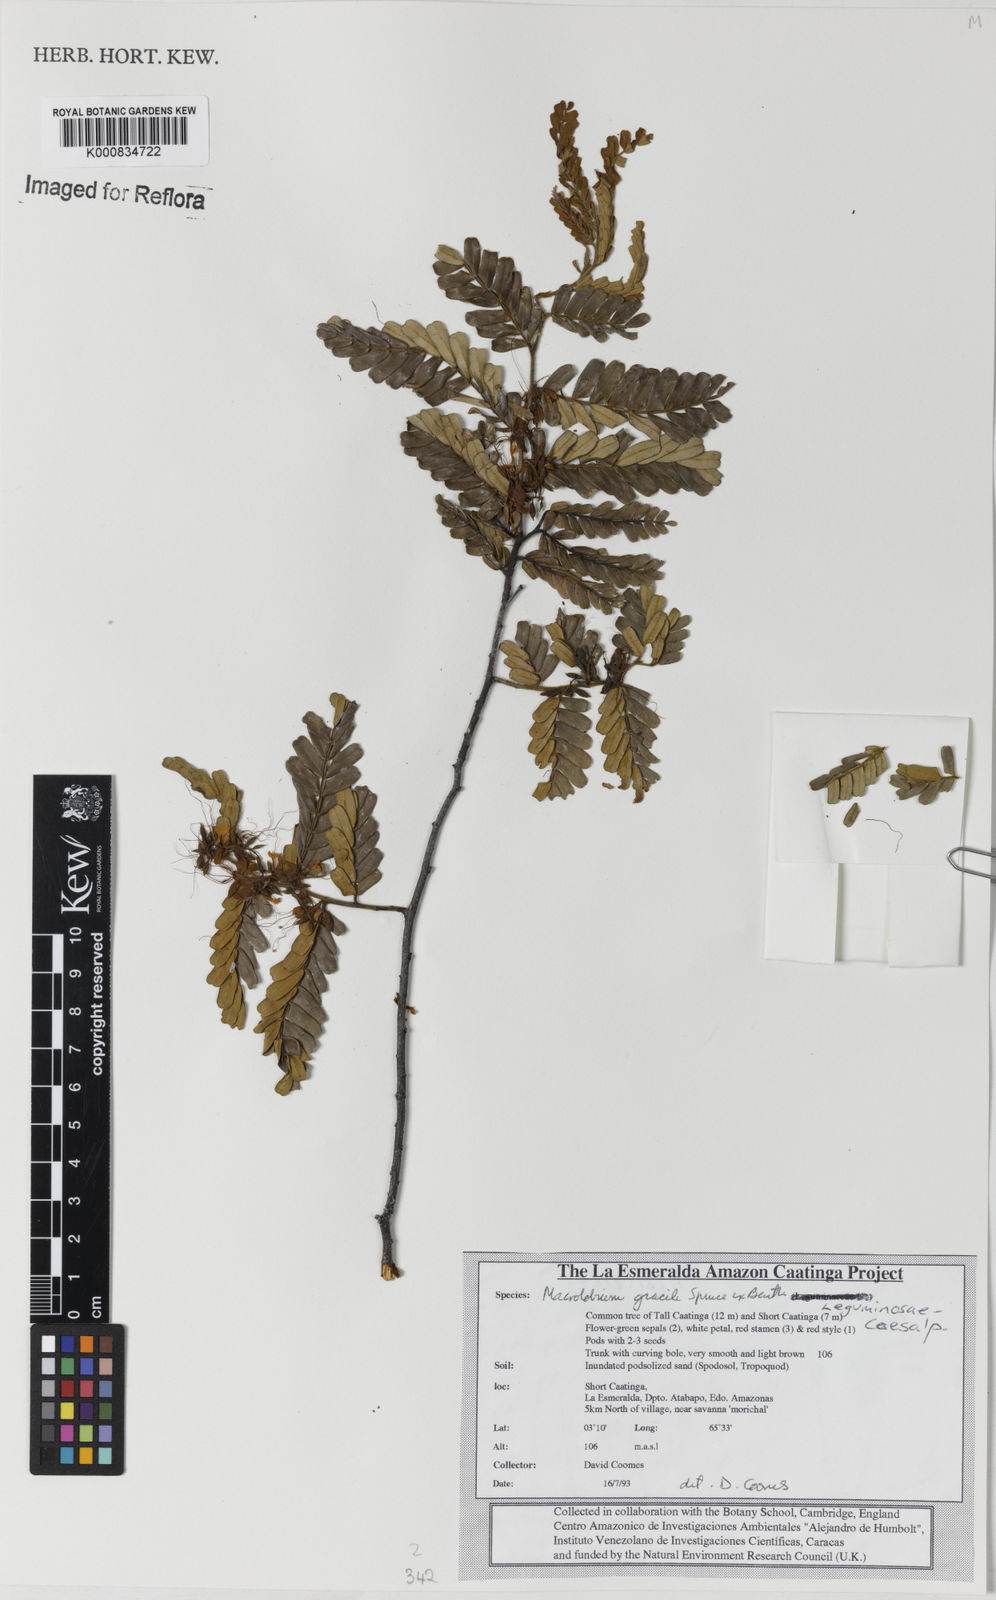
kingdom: Plantae
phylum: Tracheophyta
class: Magnoliopsida
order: Fabales
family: Fabaceae
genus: Macrolobium
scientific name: Macrolobium
